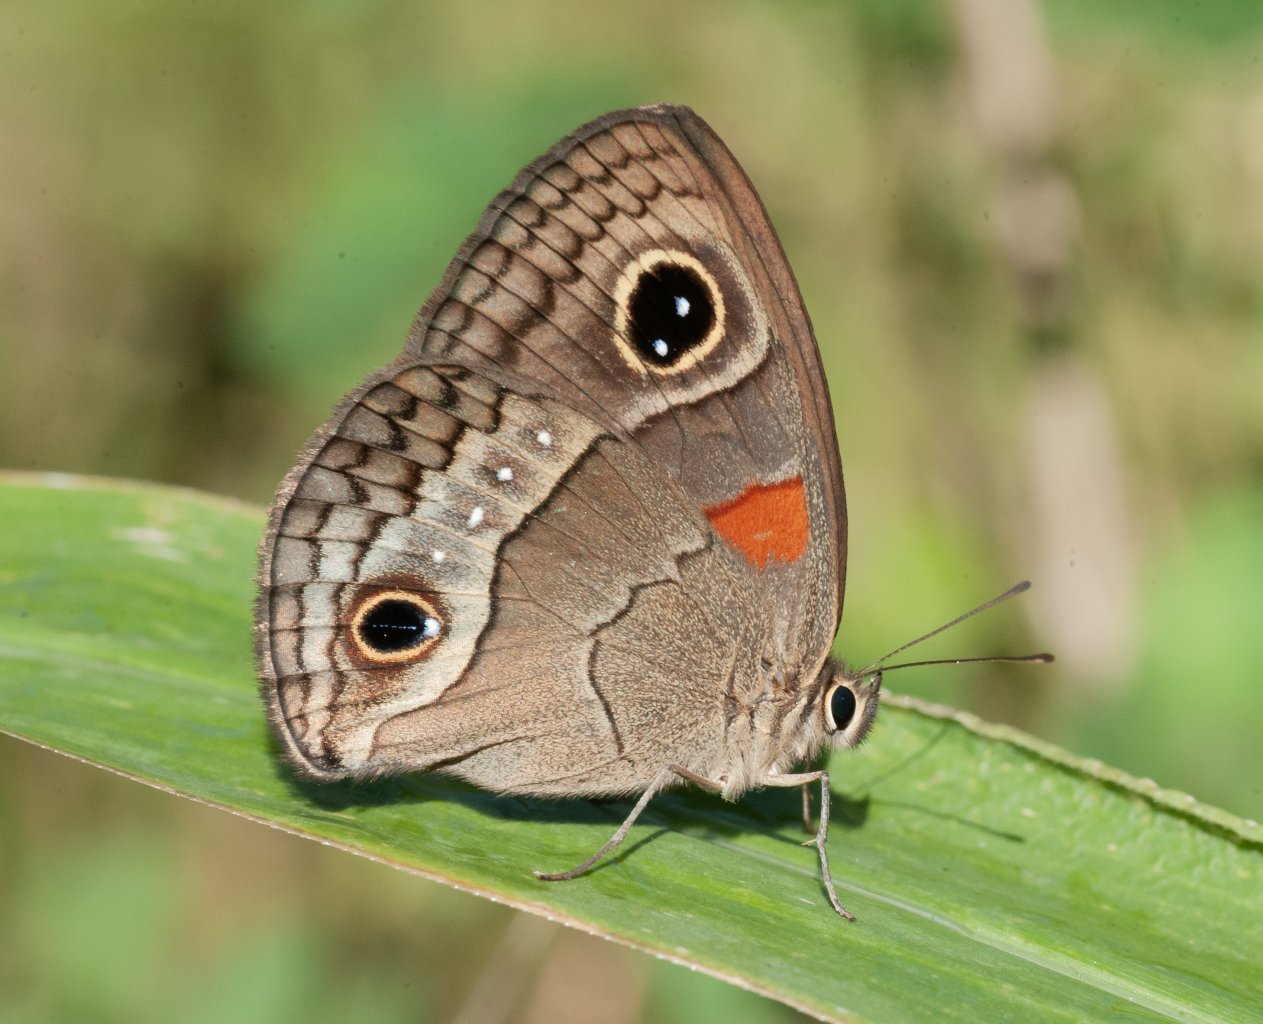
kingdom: Animalia
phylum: Arthropoda
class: Insecta
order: Lepidoptera
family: Nymphalidae
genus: Calisto
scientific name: Calisto herophile
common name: Cuban Calisto
